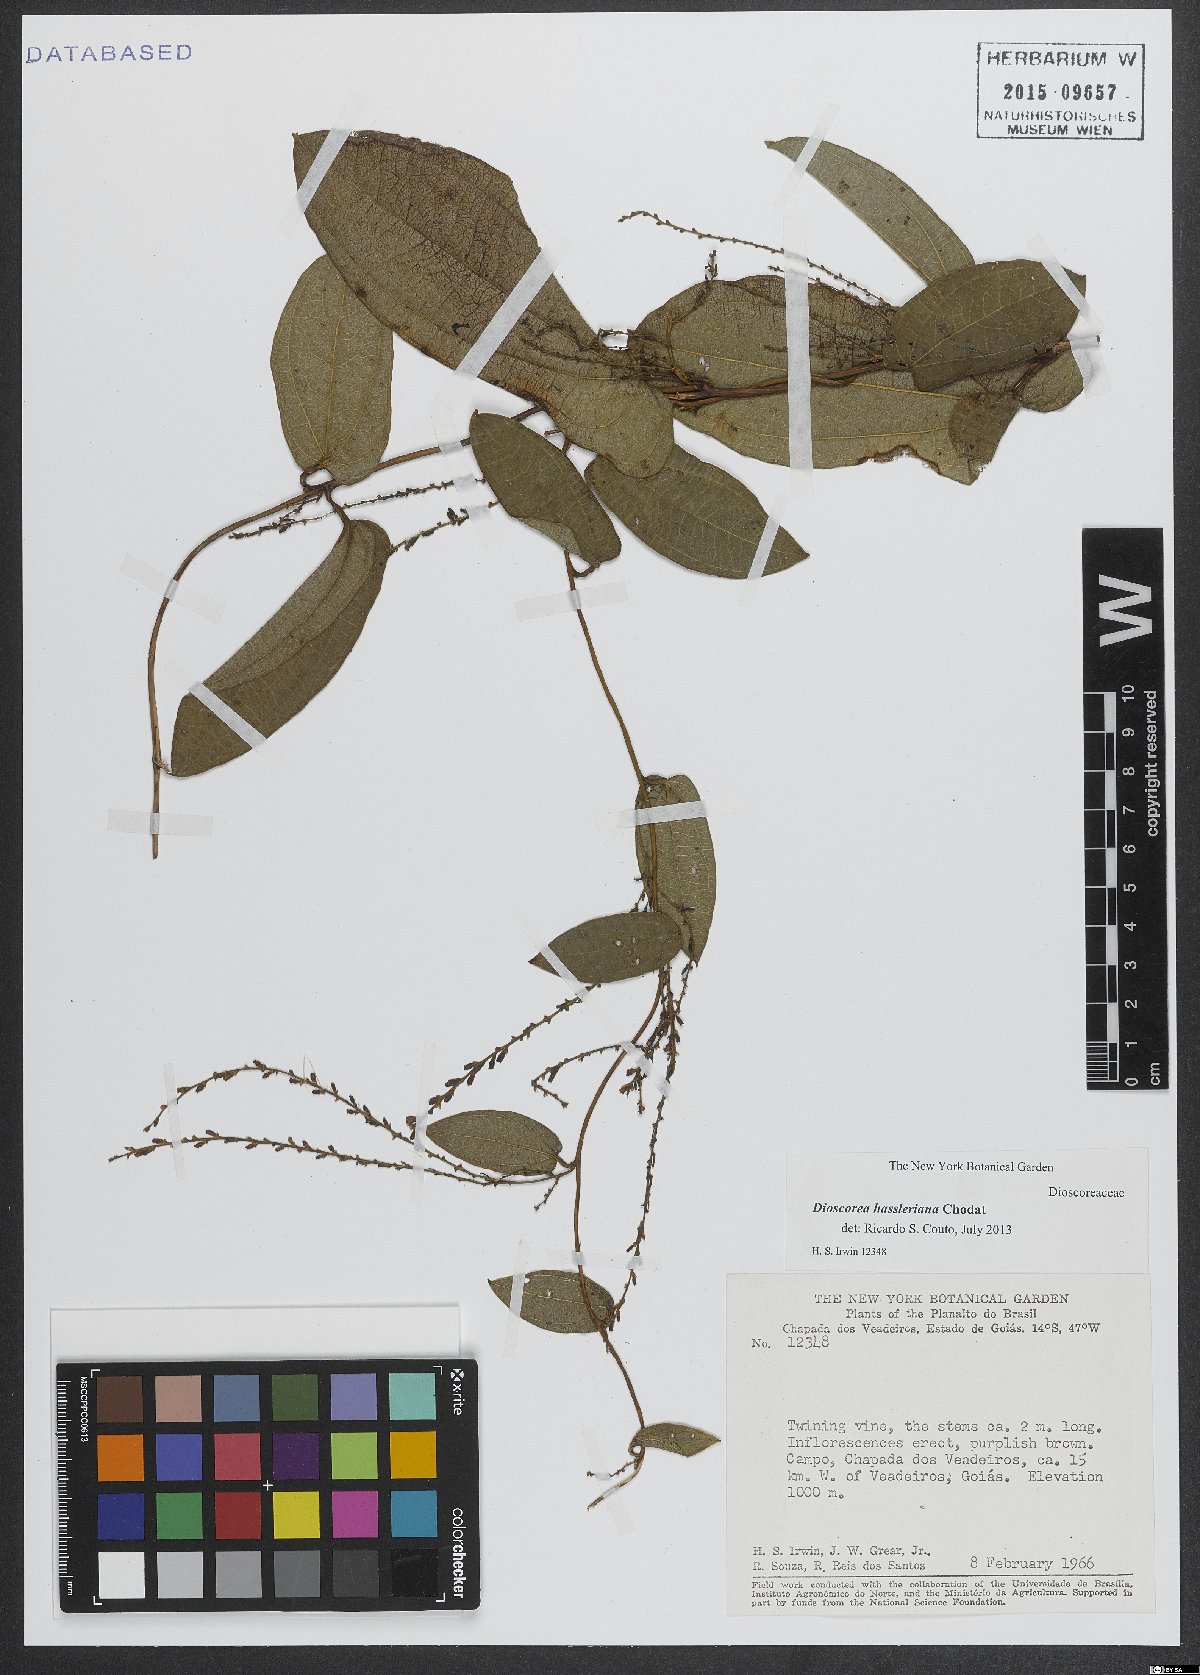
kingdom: Plantae
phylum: Tracheophyta
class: Liliopsida
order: Dioscoreales
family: Dioscoreaceae
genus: Dioscorea
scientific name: Dioscorea hassleriana
